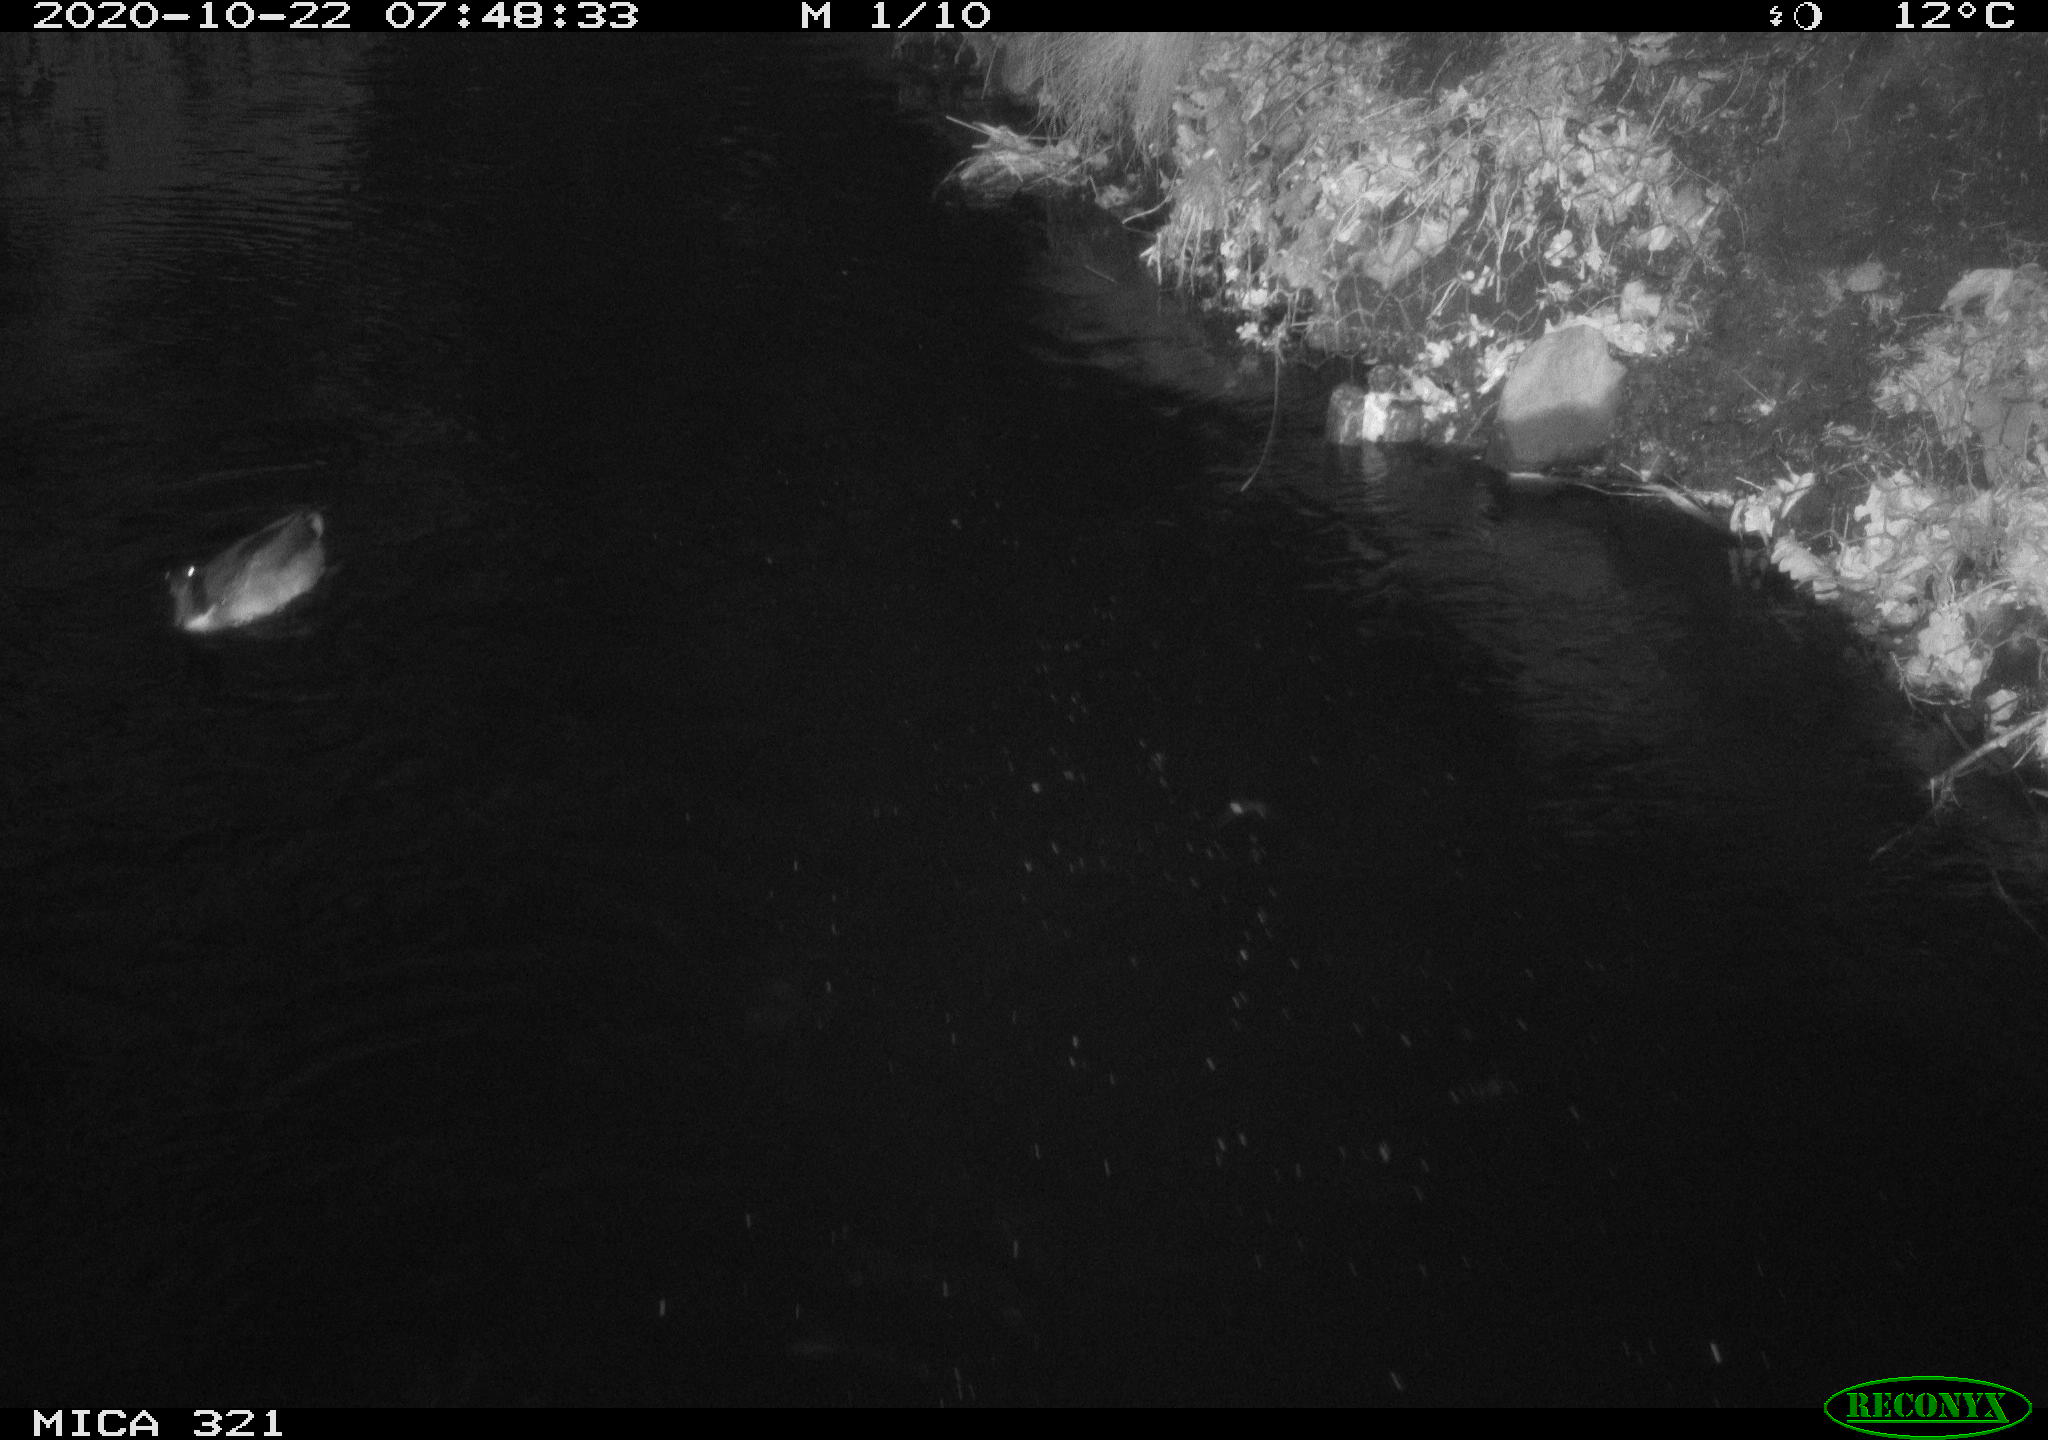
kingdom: Animalia
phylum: Chordata
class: Aves
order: Anseriformes
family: Anatidae
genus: Anas
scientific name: Anas platyrhynchos
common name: Mallard
